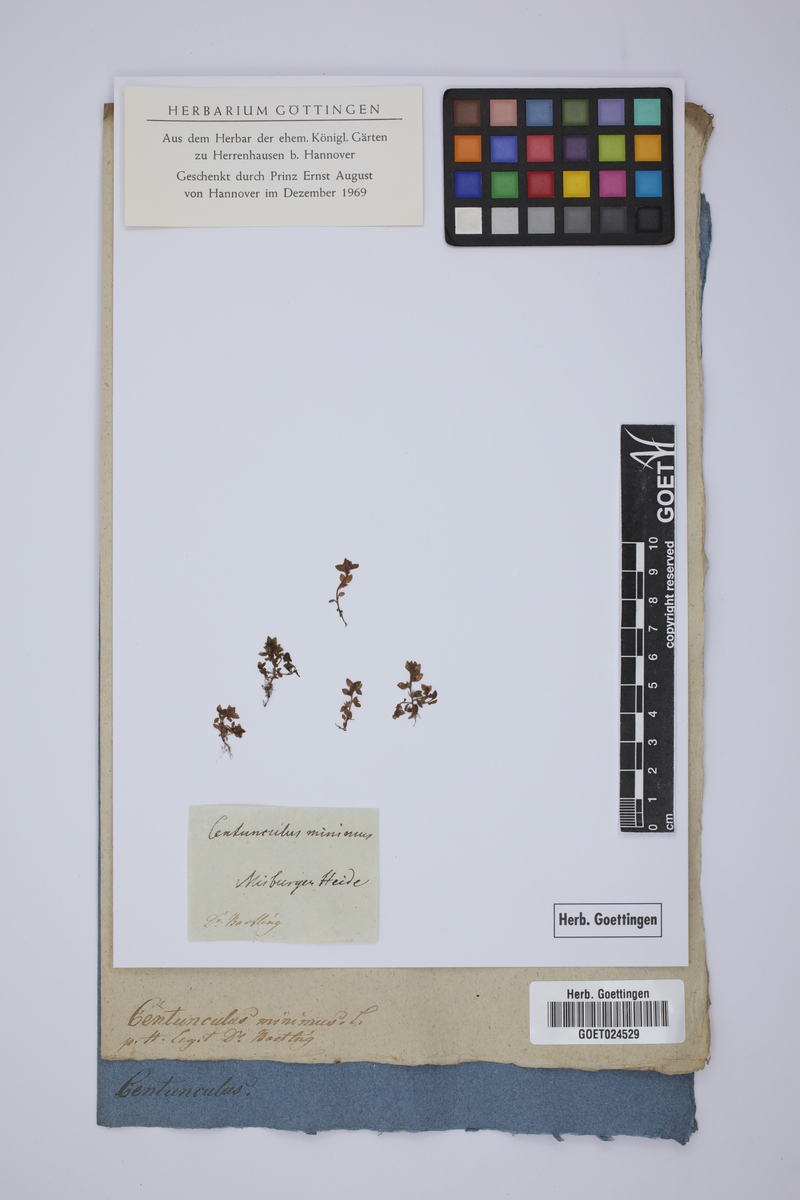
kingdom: Plantae
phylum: Tracheophyta
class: Magnoliopsida
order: Ericales
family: Primulaceae
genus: Lysimachia
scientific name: Lysimachia minima
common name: Chaffweed
